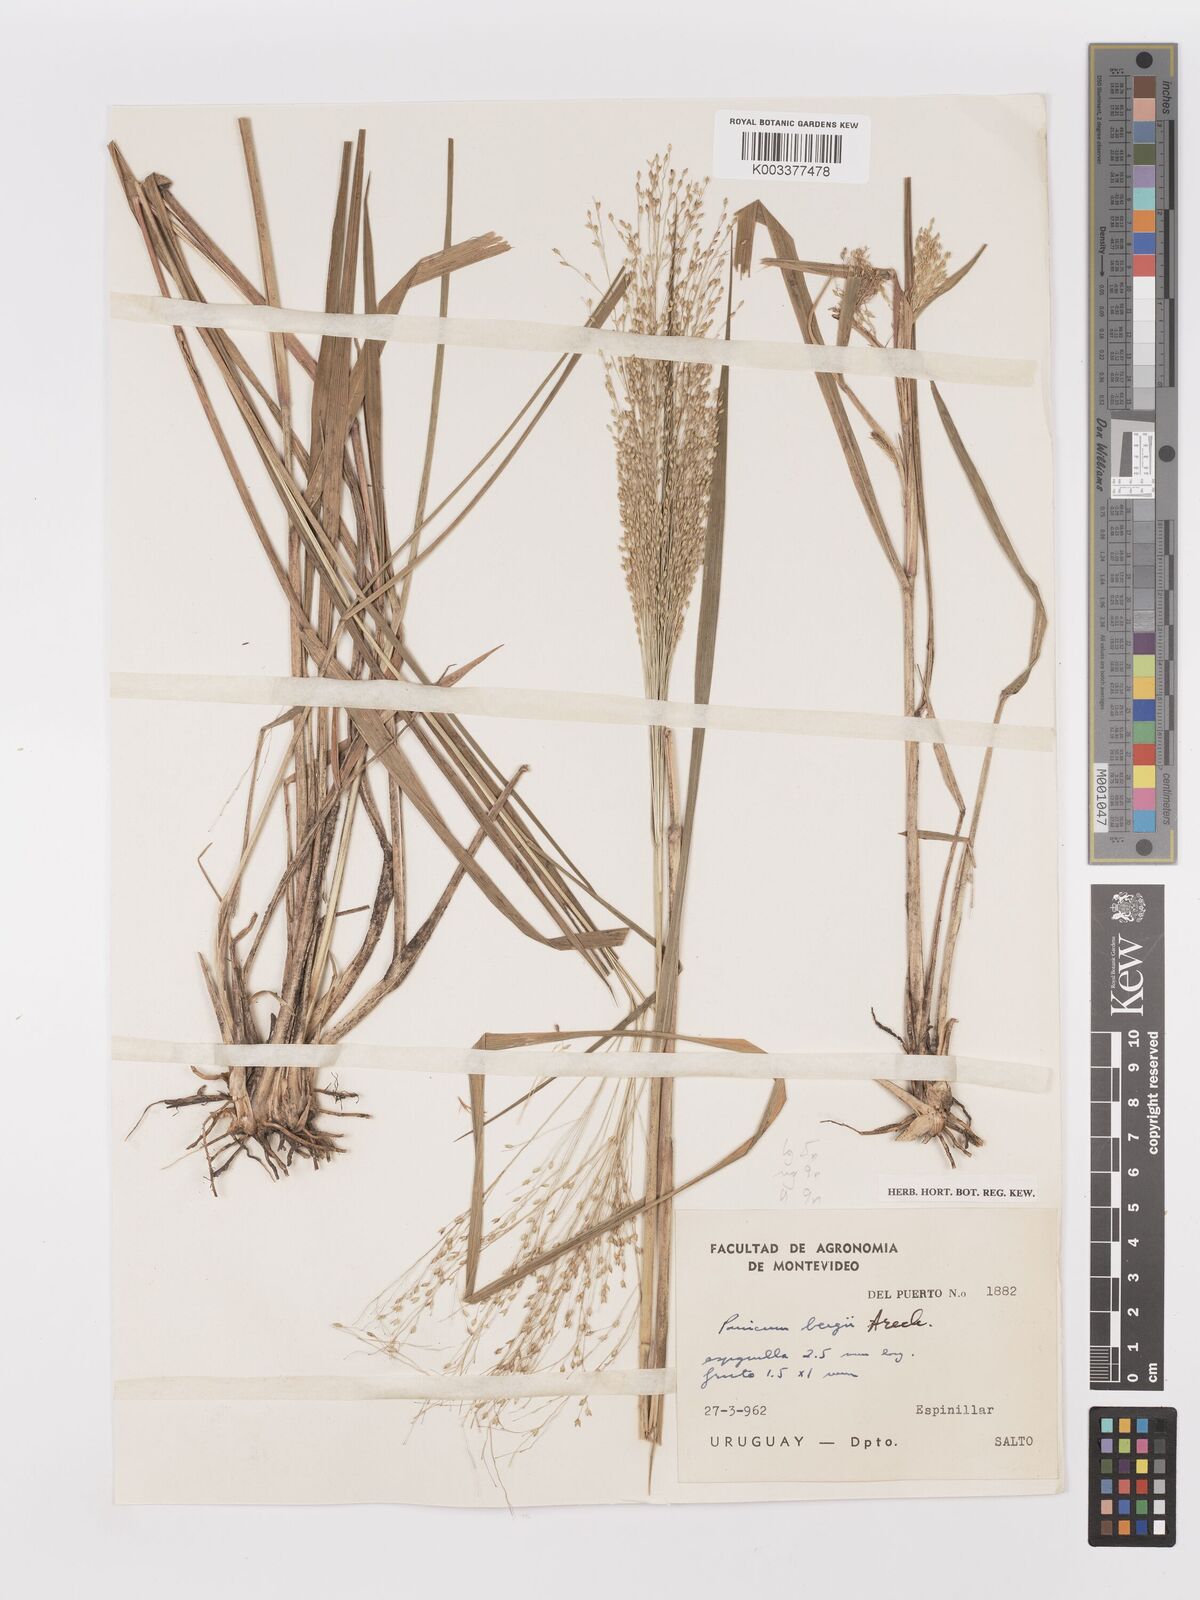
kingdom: Plantae
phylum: Tracheophyta
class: Liliopsida
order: Poales
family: Poaceae
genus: Panicum
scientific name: Panicum bergii
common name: Berg's panicgrass
